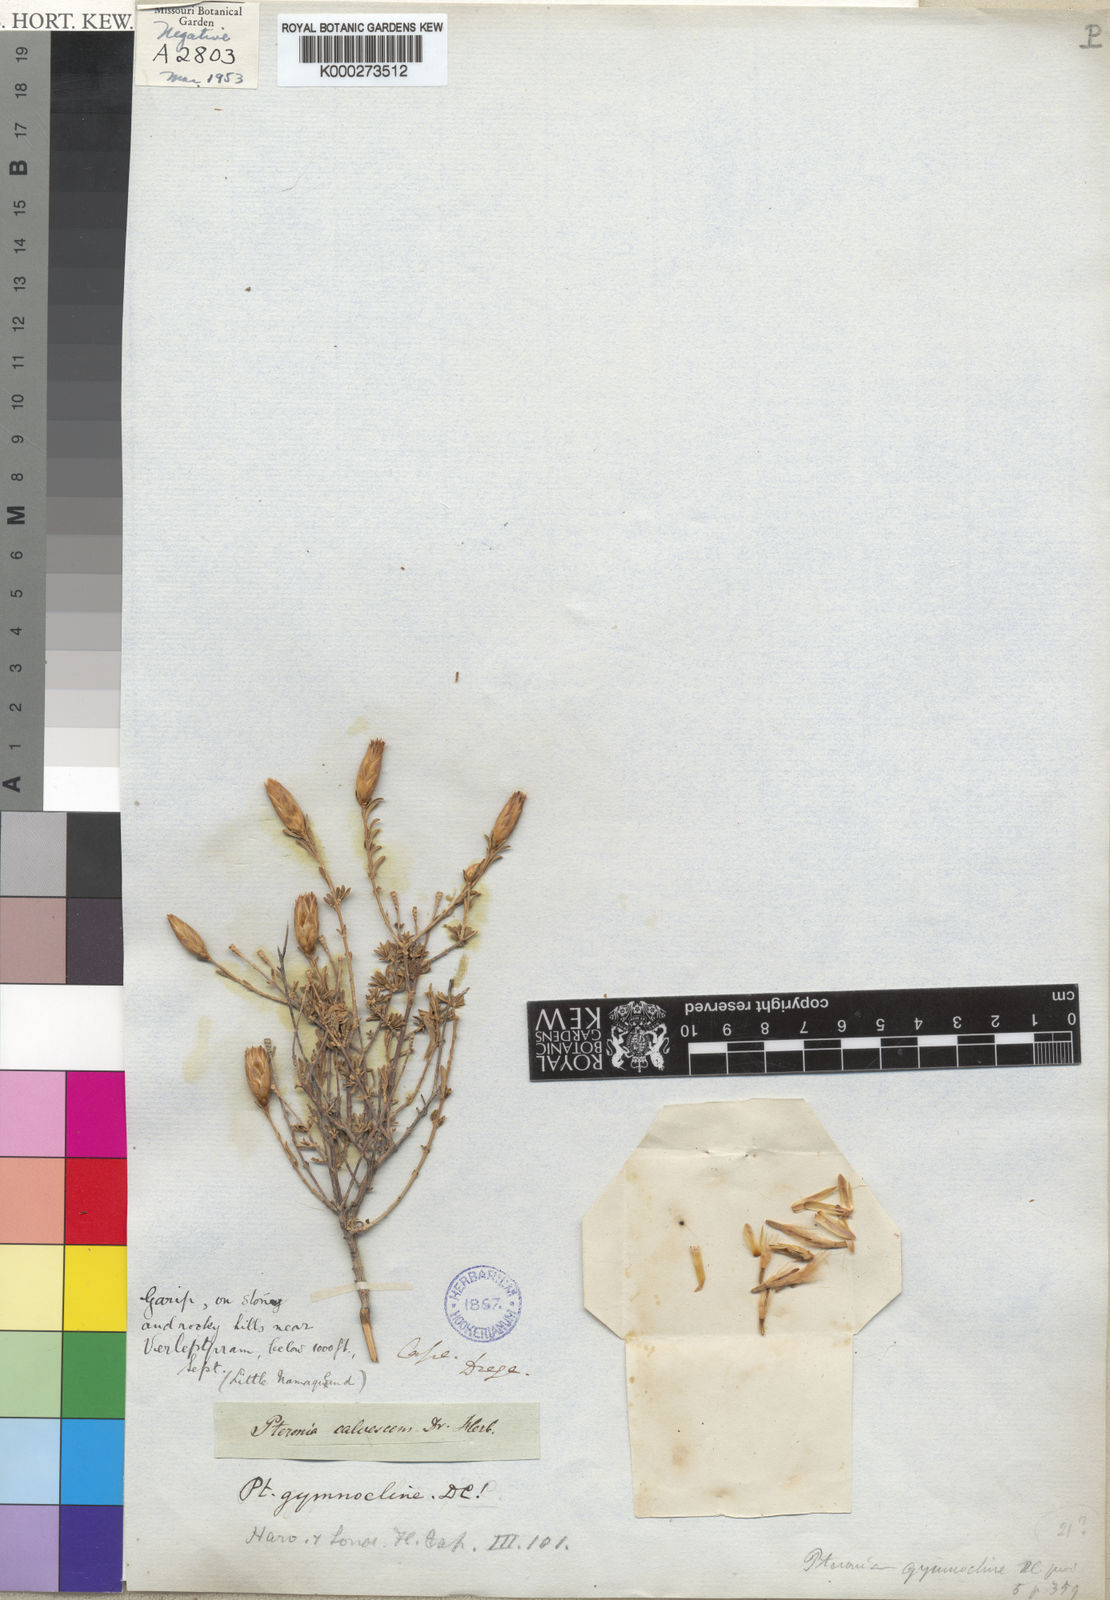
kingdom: Plantae
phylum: Tracheophyta
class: Magnoliopsida
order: Asterales
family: Asteraceae
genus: Pteronia
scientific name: Pteronia gymnocline
